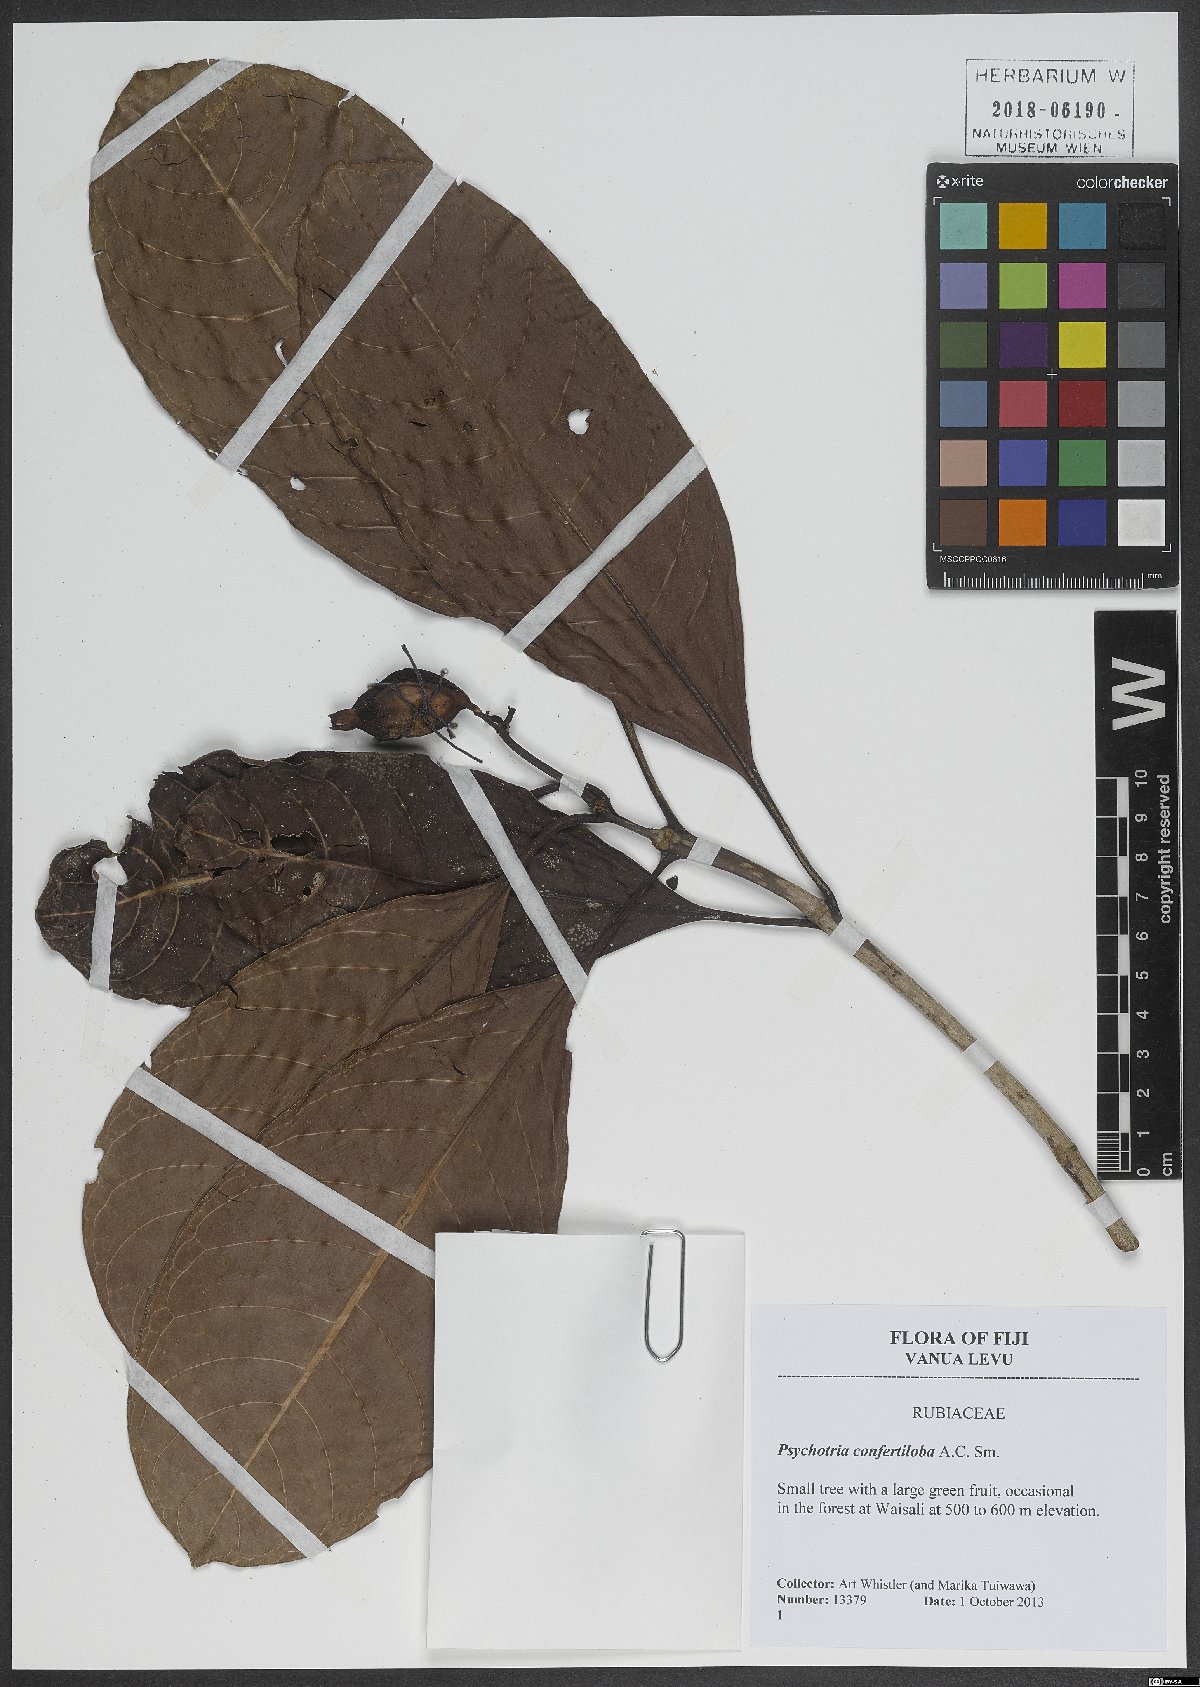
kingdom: Plantae
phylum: Tracheophyta
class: Magnoliopsida
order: Gentianales
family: Rubiaceae
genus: Psychotria
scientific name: Psychotria confertiloba
